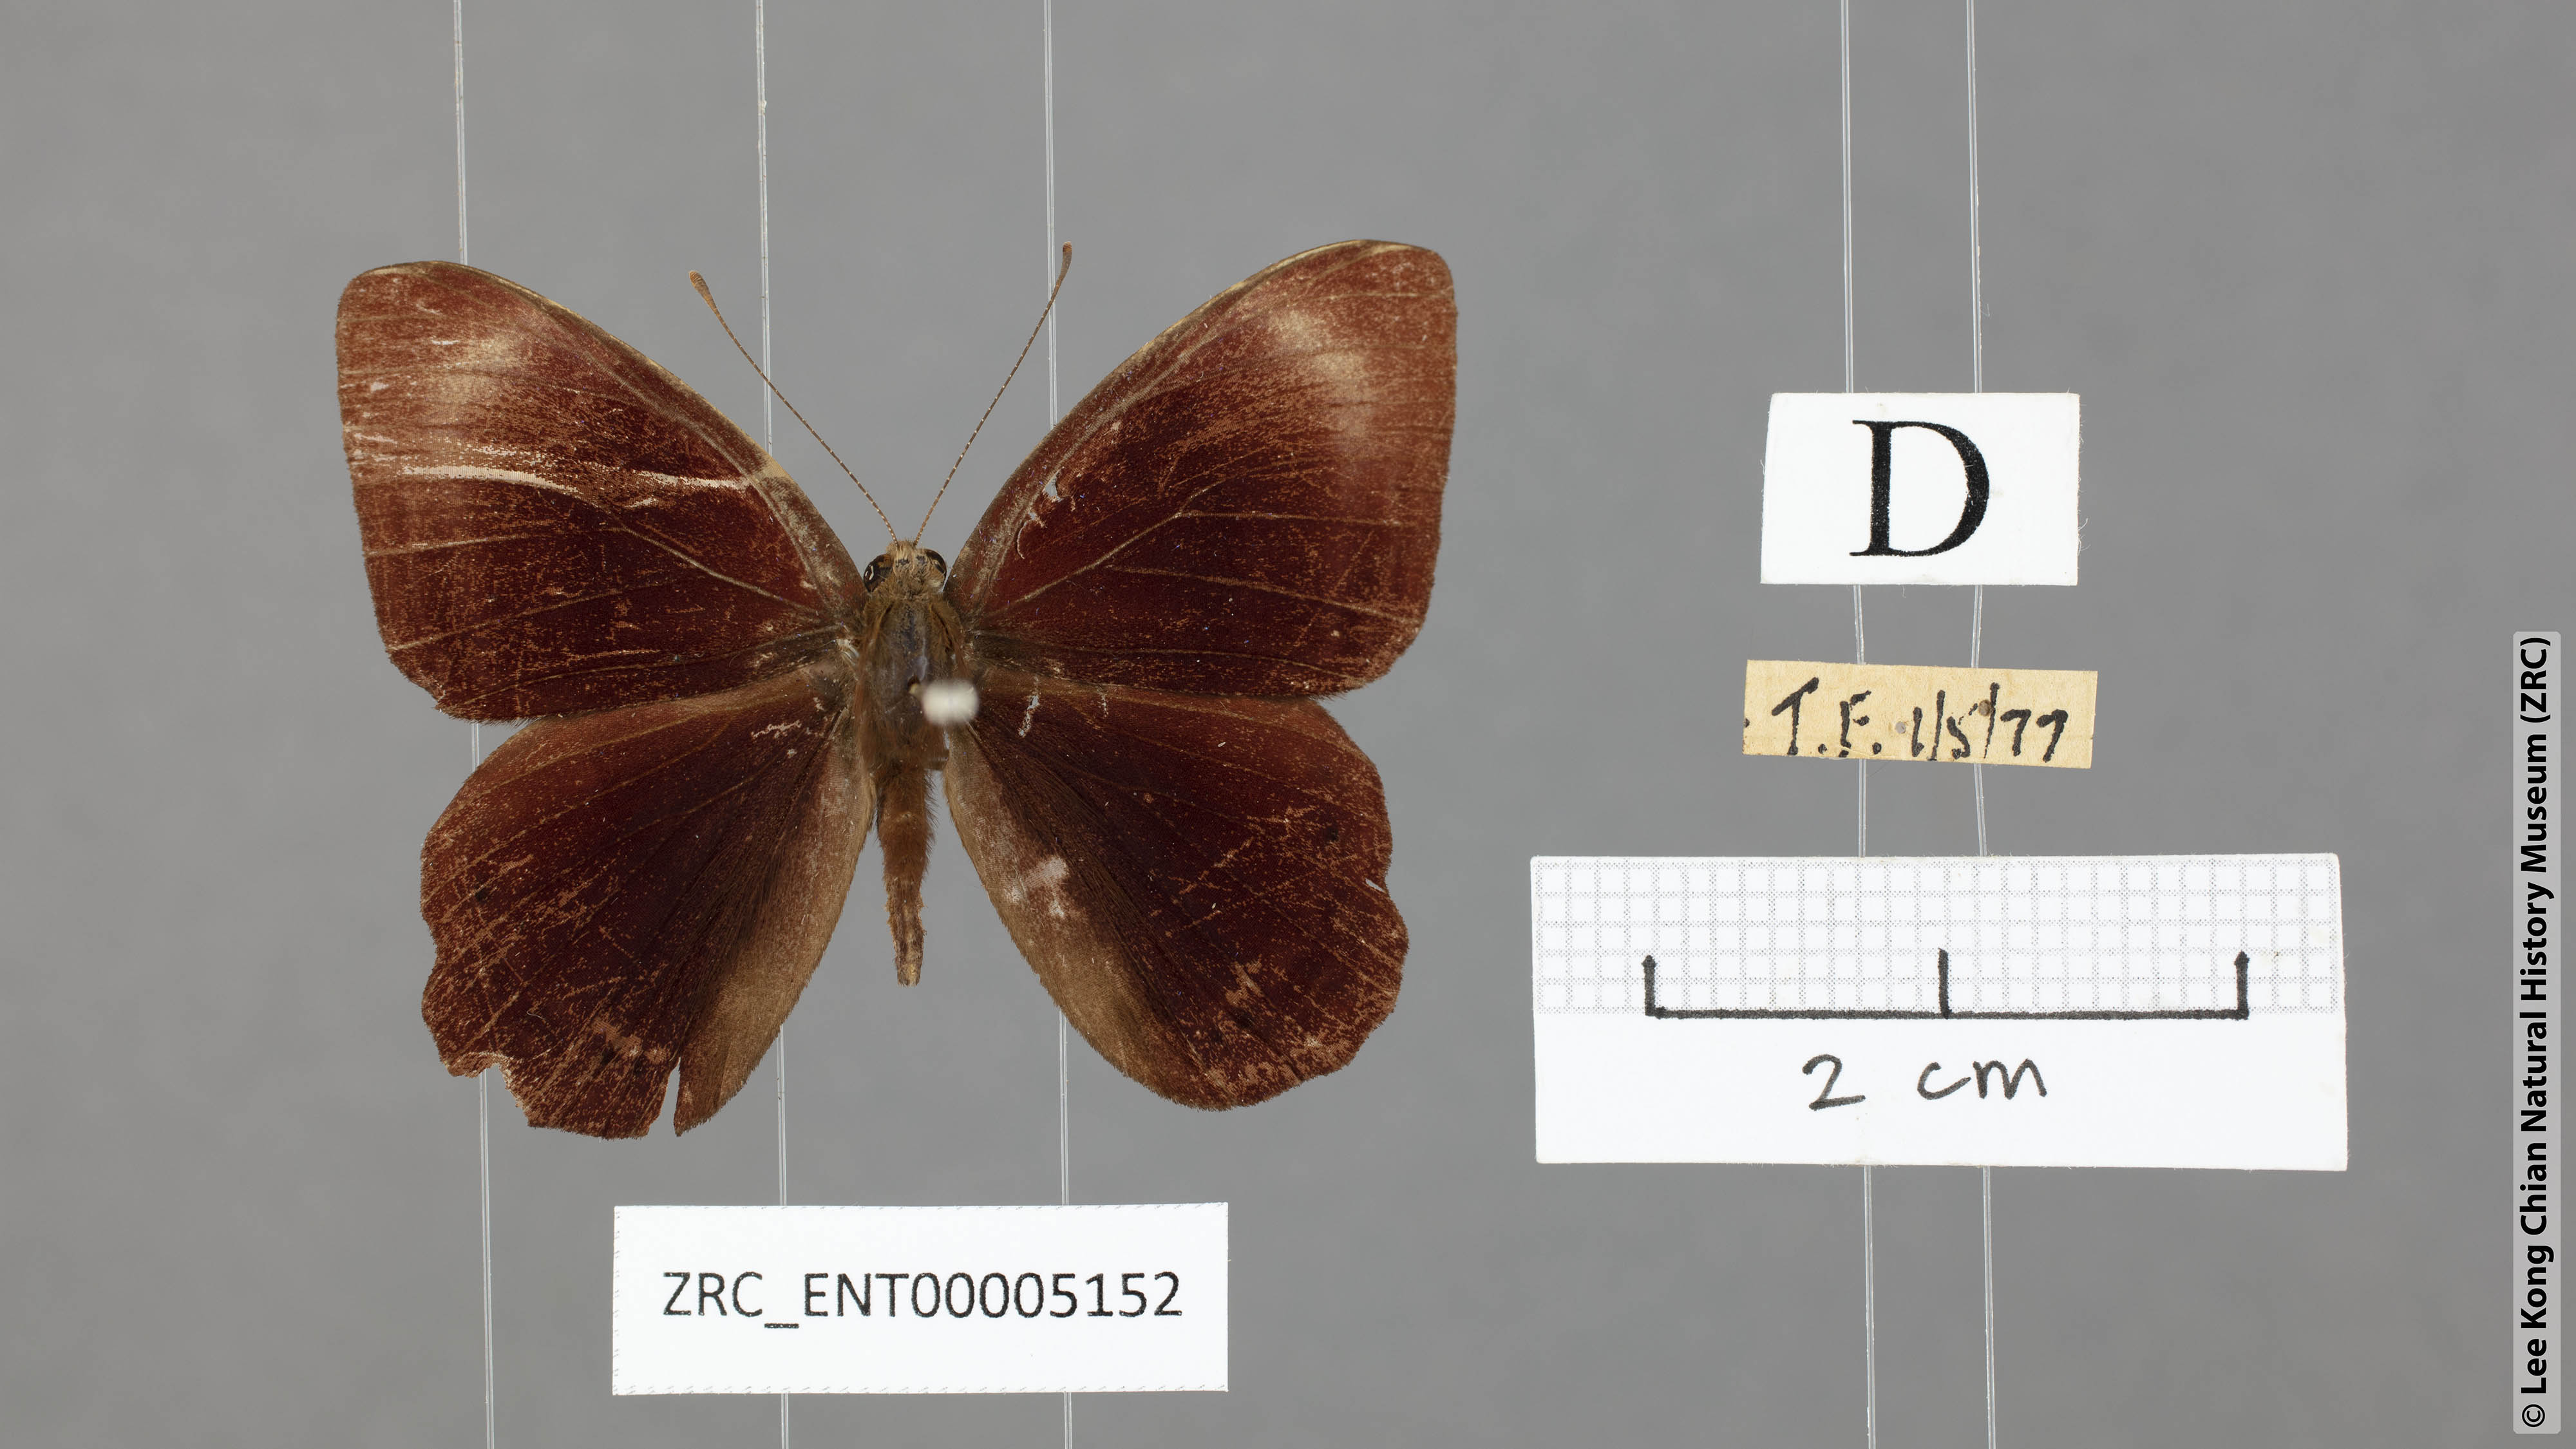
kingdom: Animalia
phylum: Arthropoda
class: Insecta
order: Lepidoptera
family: Lycaenidae
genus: Abisara
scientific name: Abisara geza
